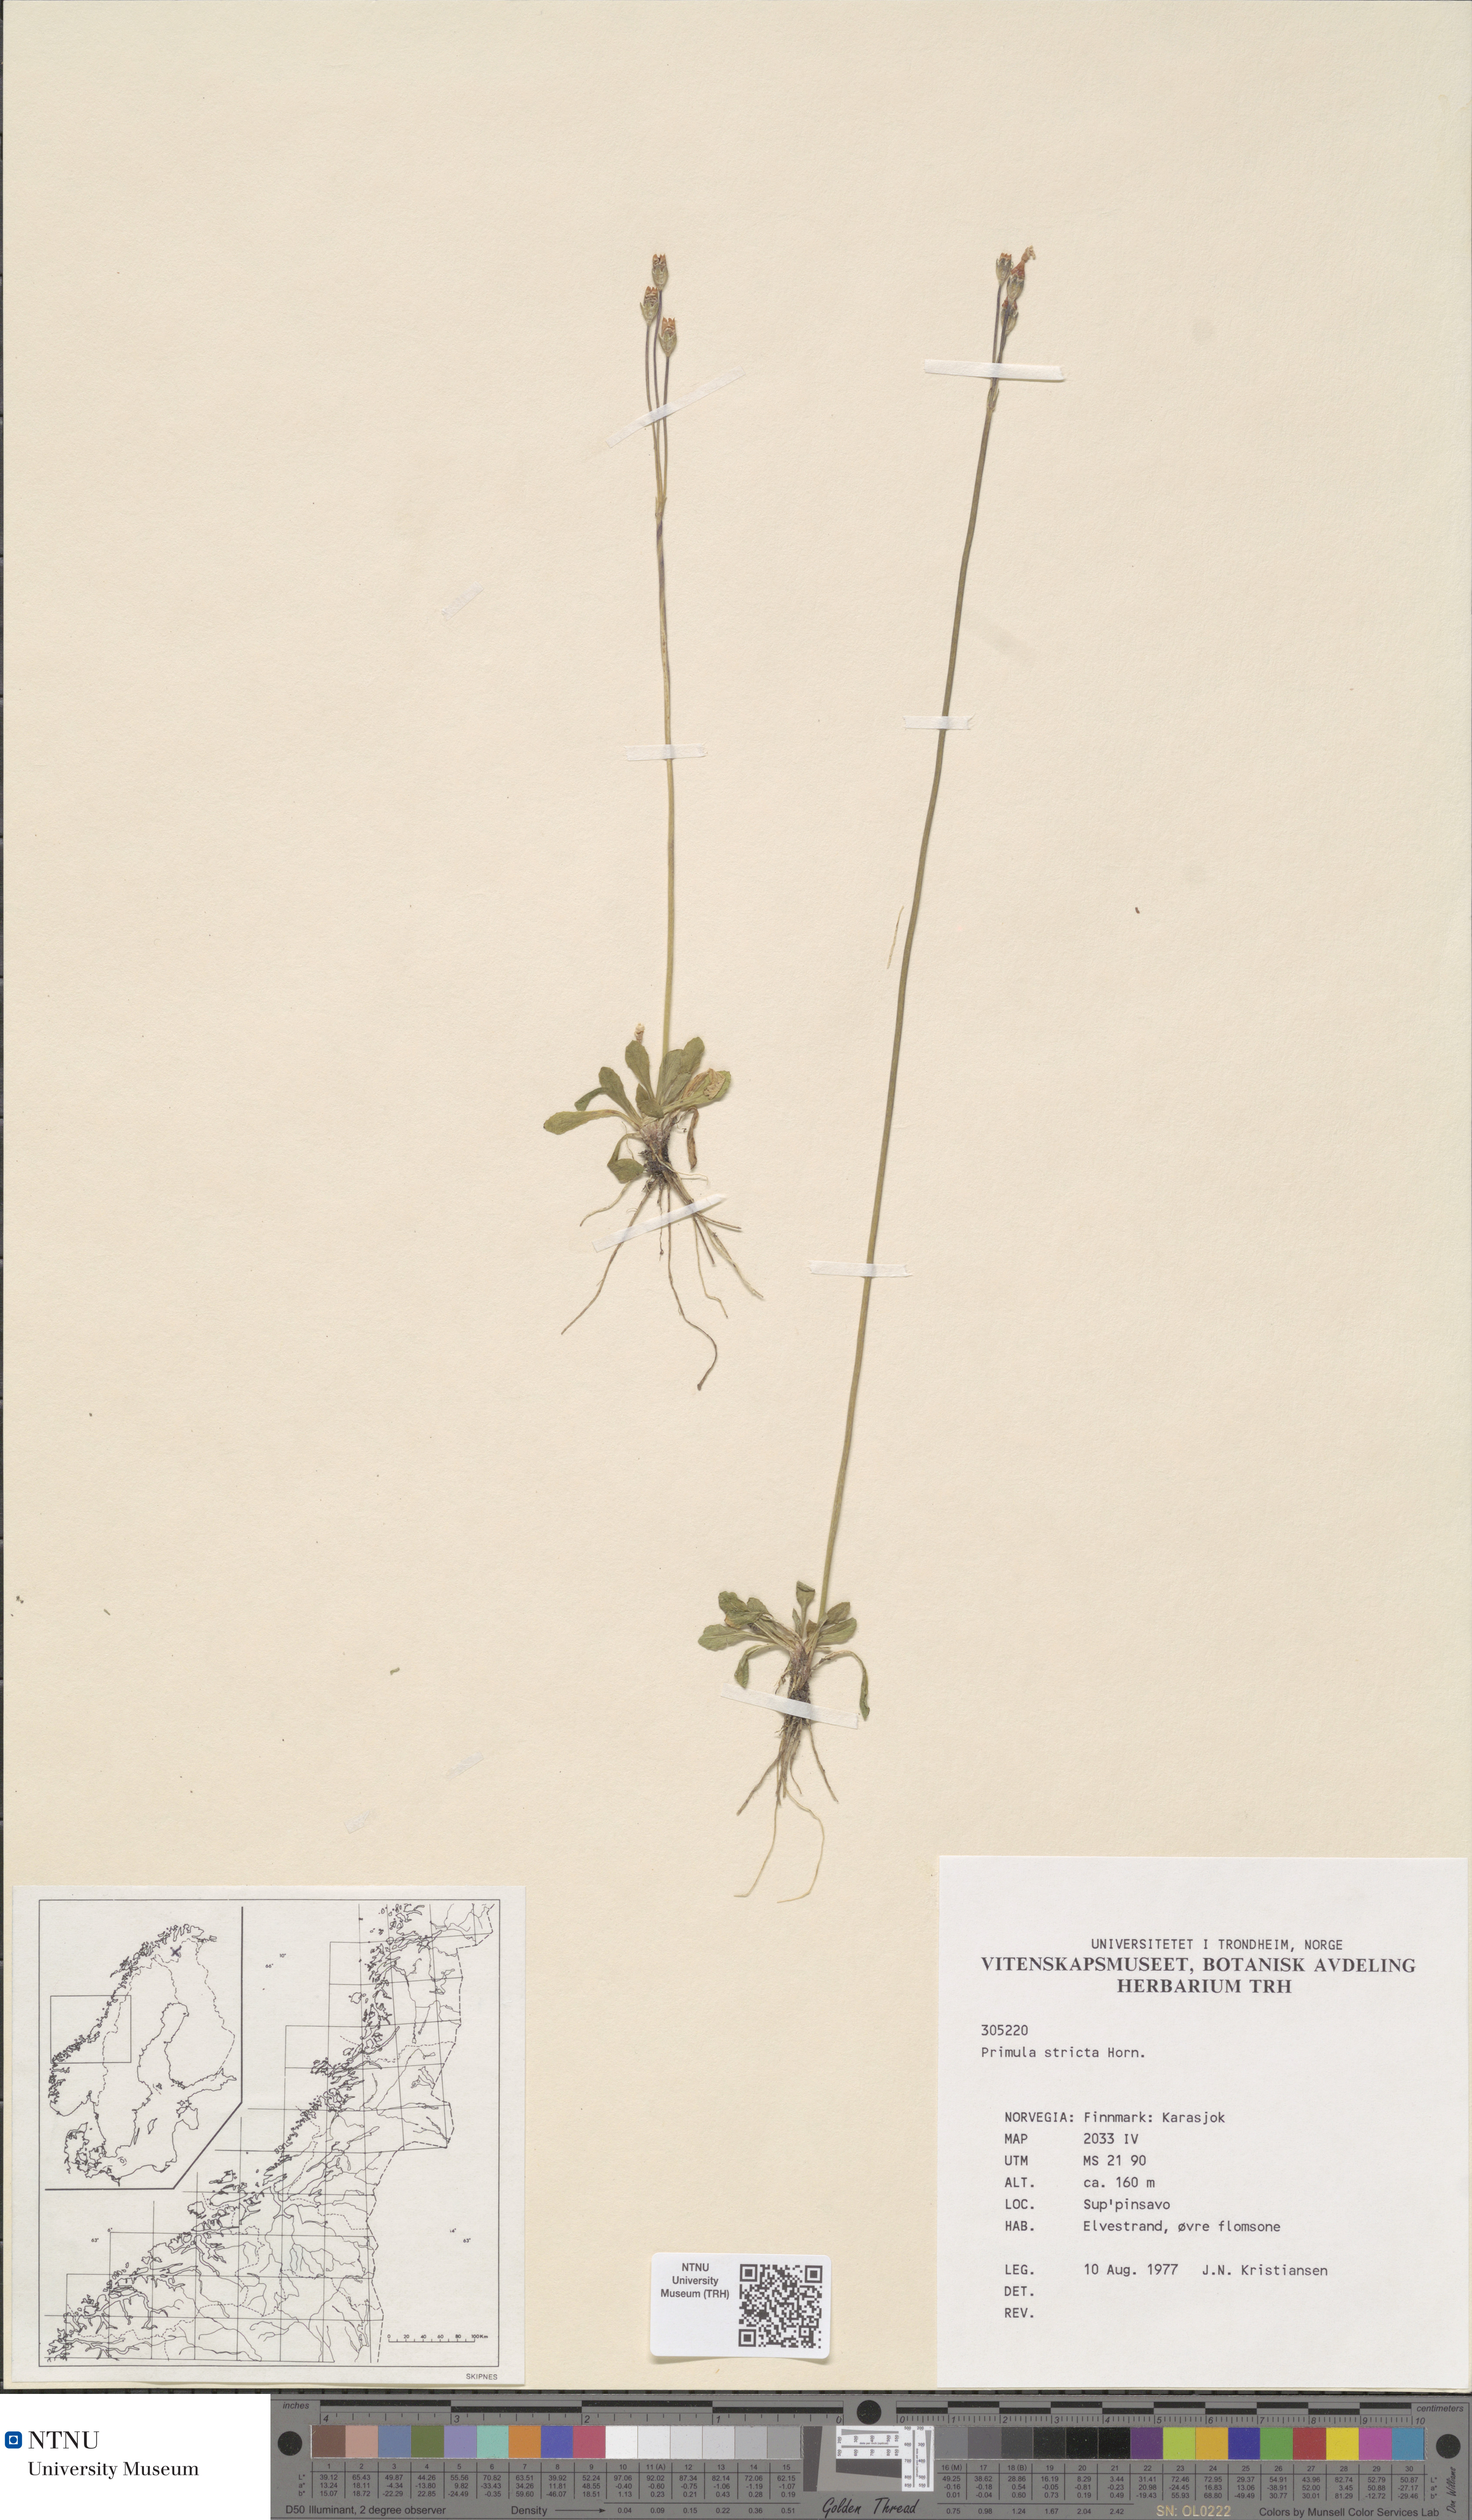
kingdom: Plantae
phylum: Tracheophyta
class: Magnoliopsida
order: Ericales
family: Primulaceae
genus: Primula
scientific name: Primula stricta
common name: Coastal primrose
